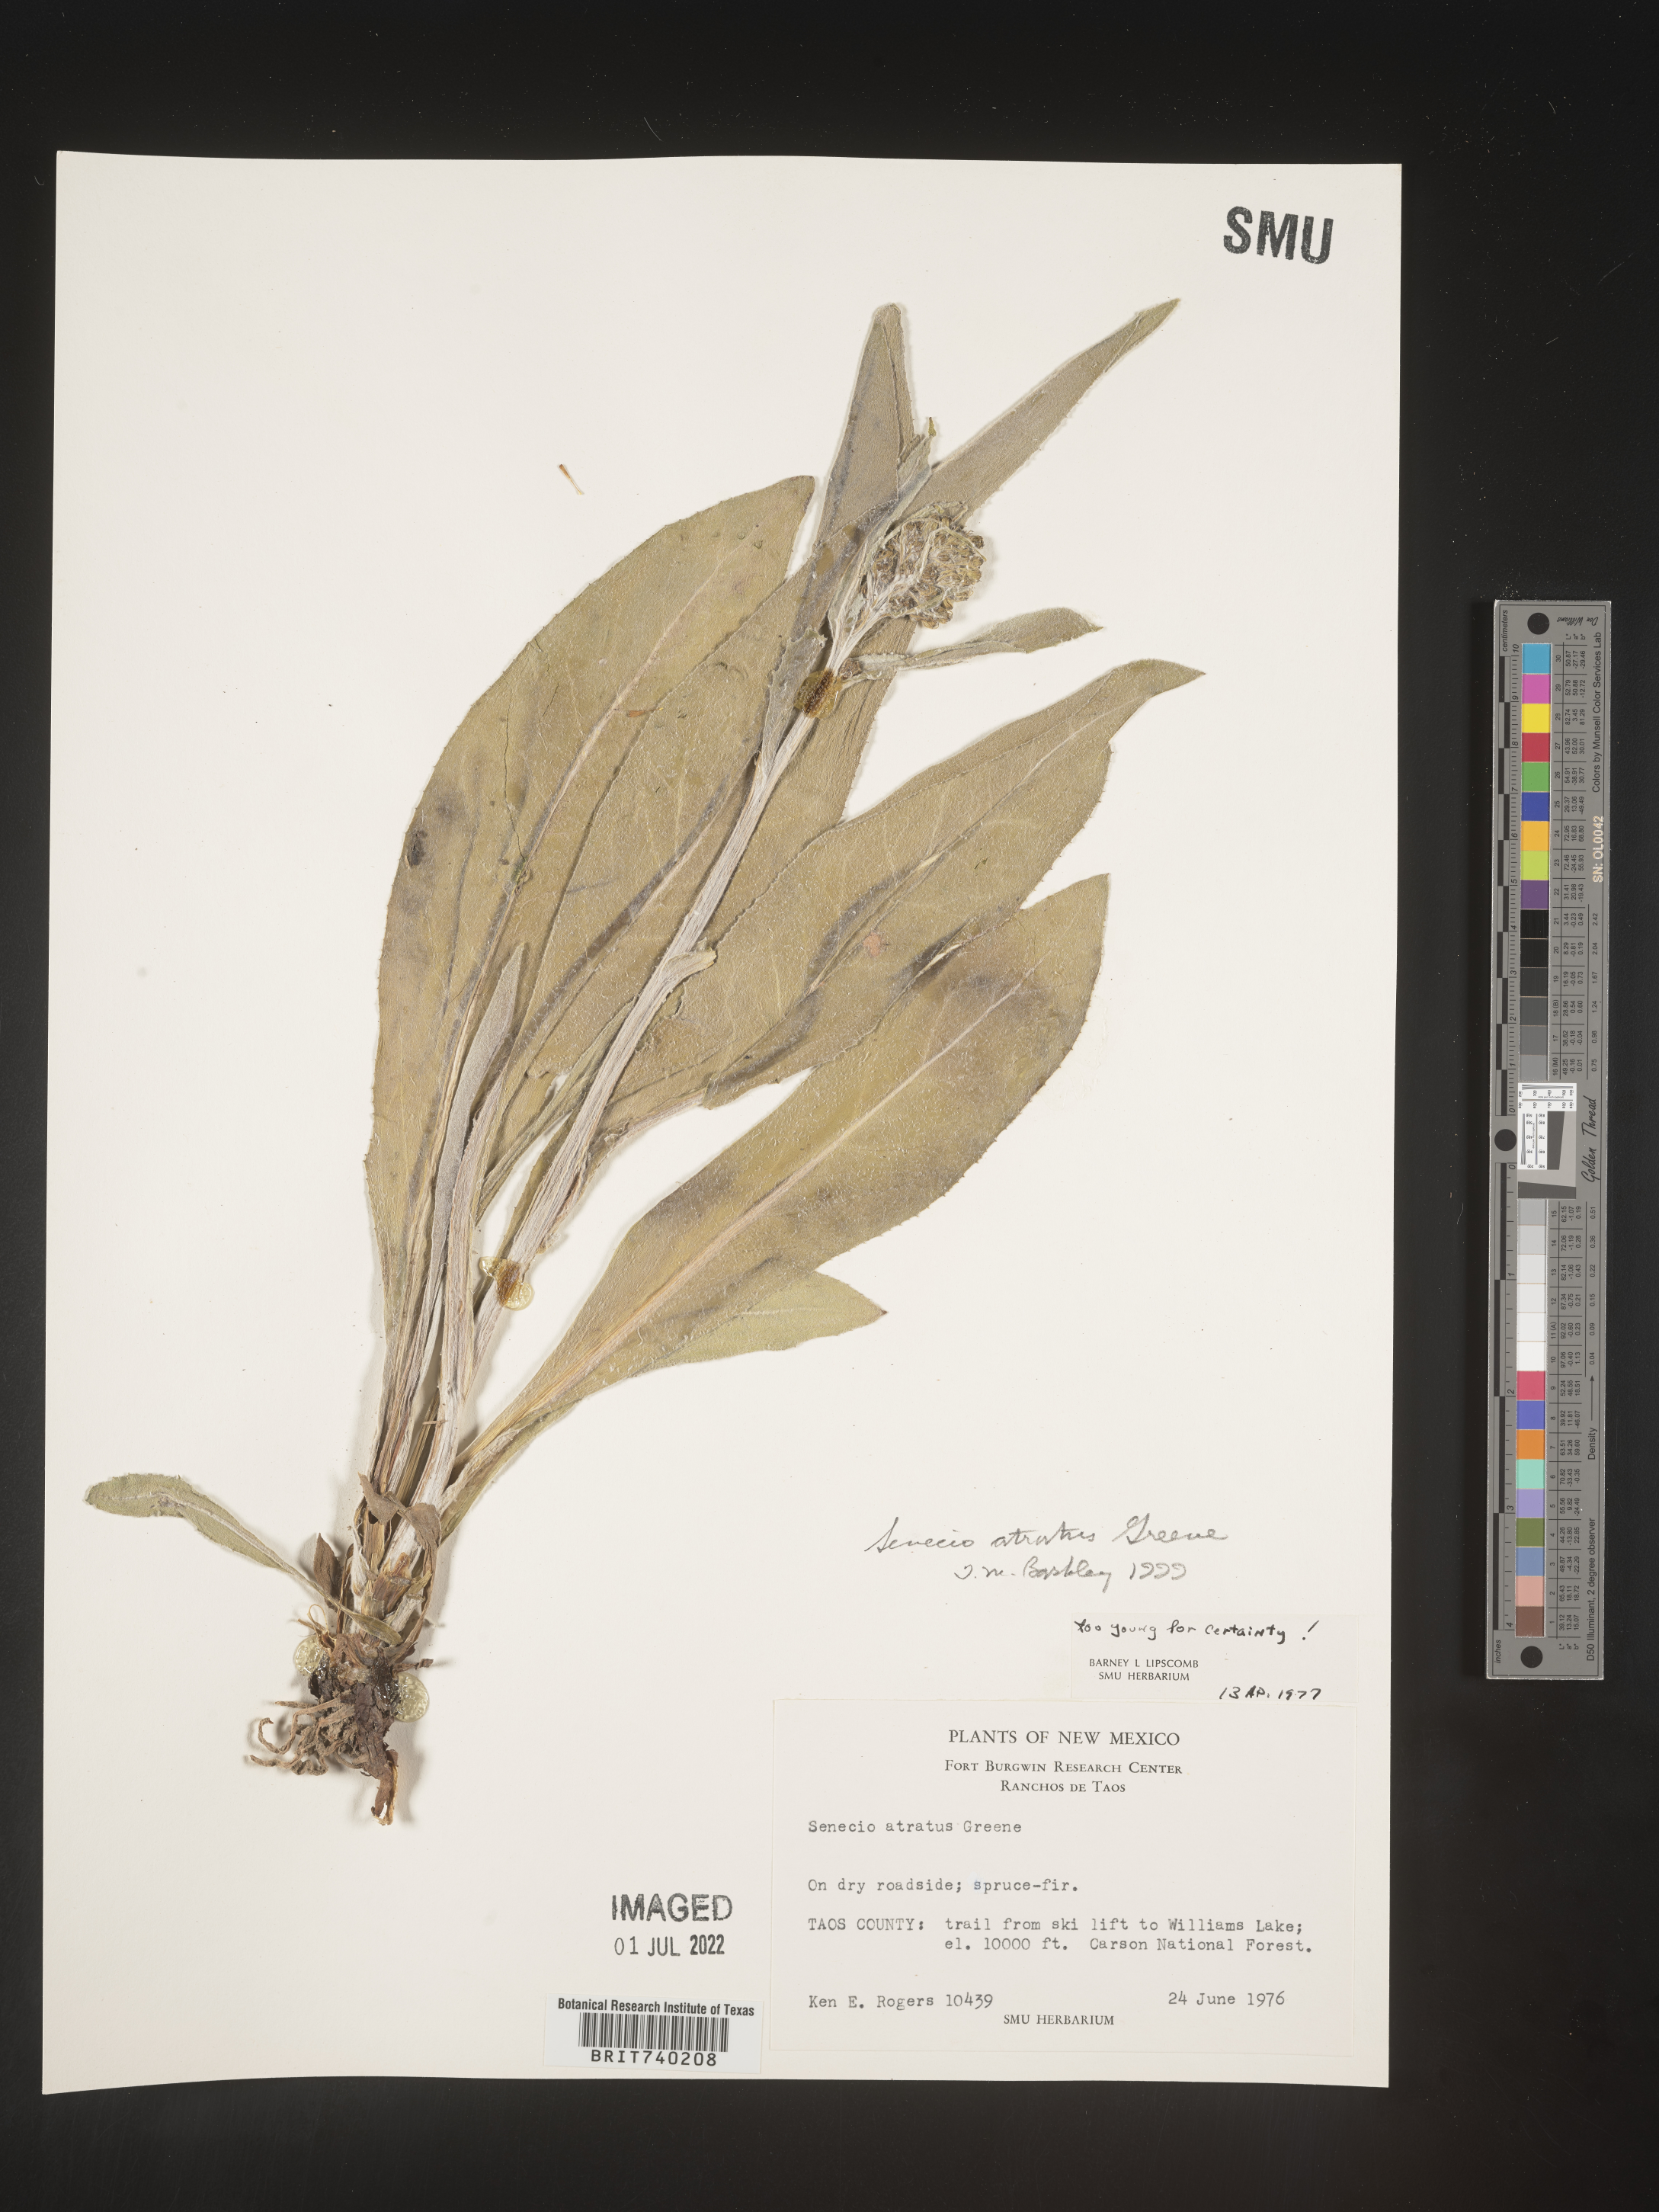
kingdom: Plantae
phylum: Tracheophyta
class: Magnoliopsida
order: Asterales
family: Asteraceae
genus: Senecio
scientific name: Senecio atratus
